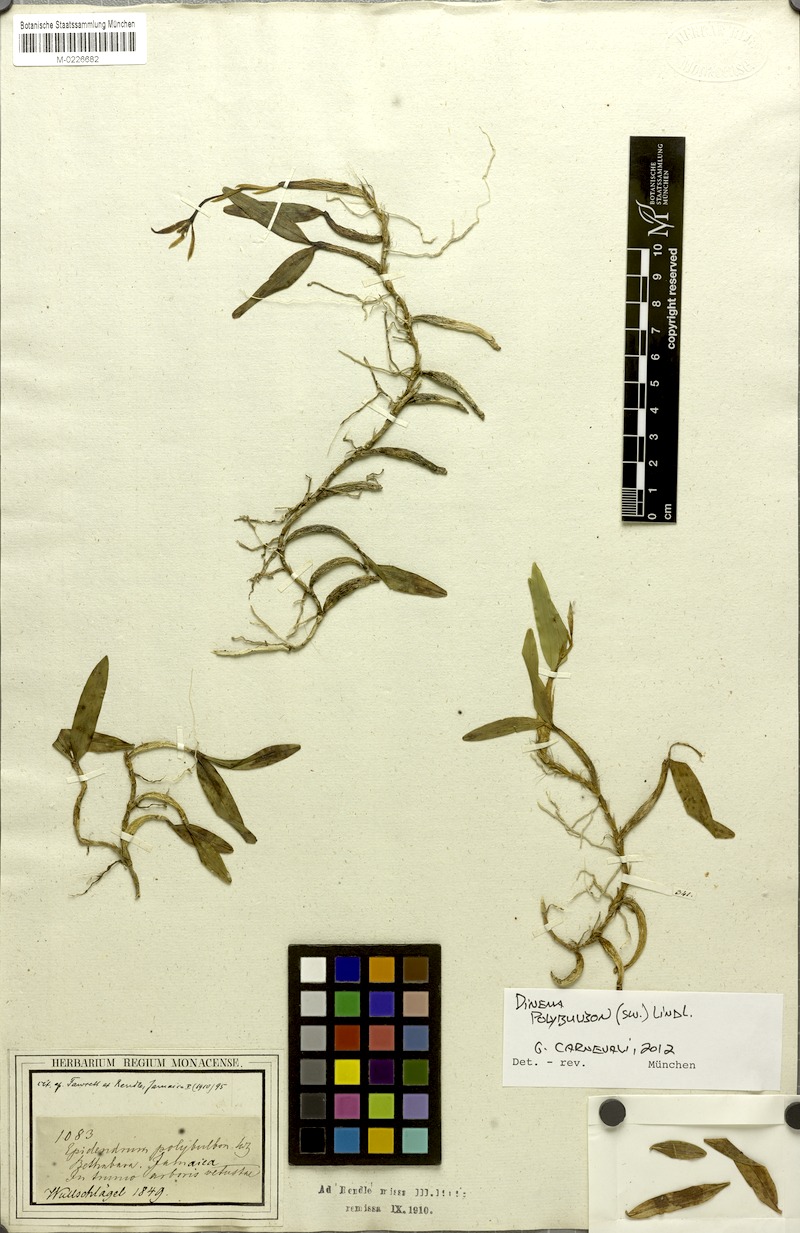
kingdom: Plantae
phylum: Tracheophyta
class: Liliopsida
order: Asparagales
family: Orchidaceae
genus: Dinema
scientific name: Dinema polybulbon
